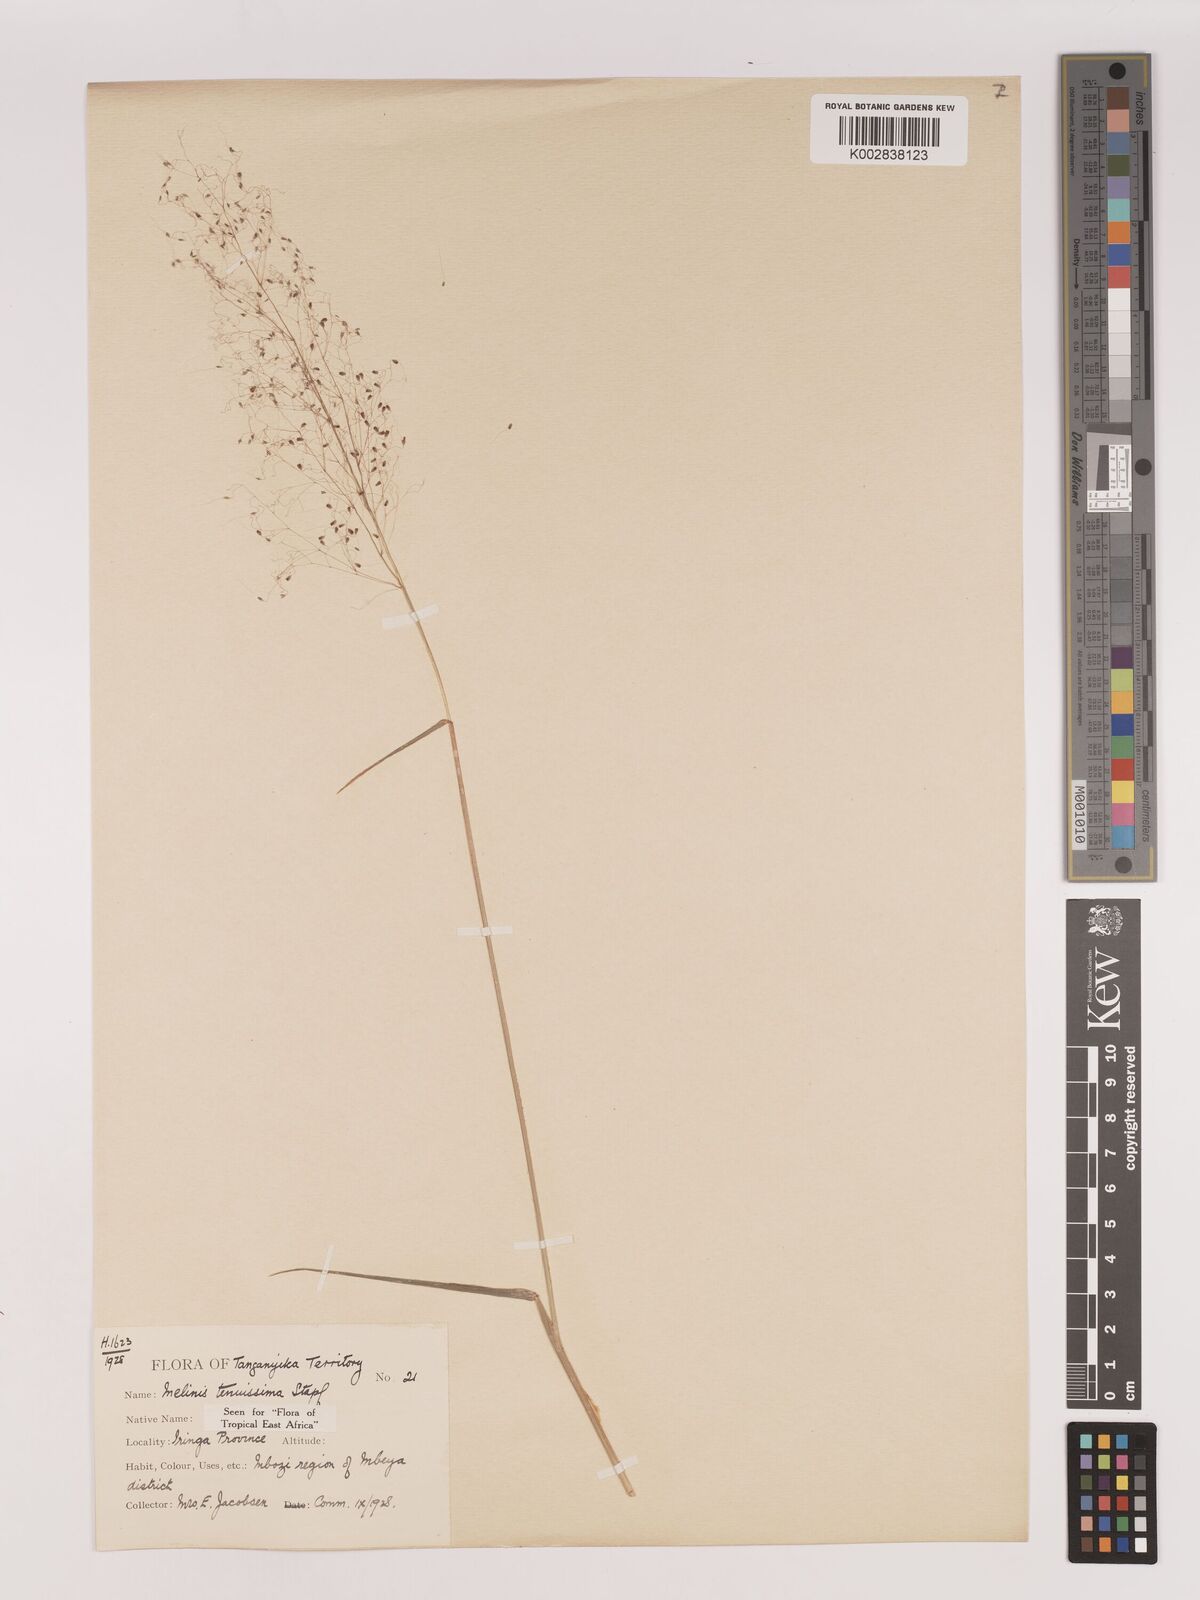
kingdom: Plantae
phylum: Tracheophyta
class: Liliopsida
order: Poales
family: Poaceae
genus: Melinis
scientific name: Melinis tenuissima
